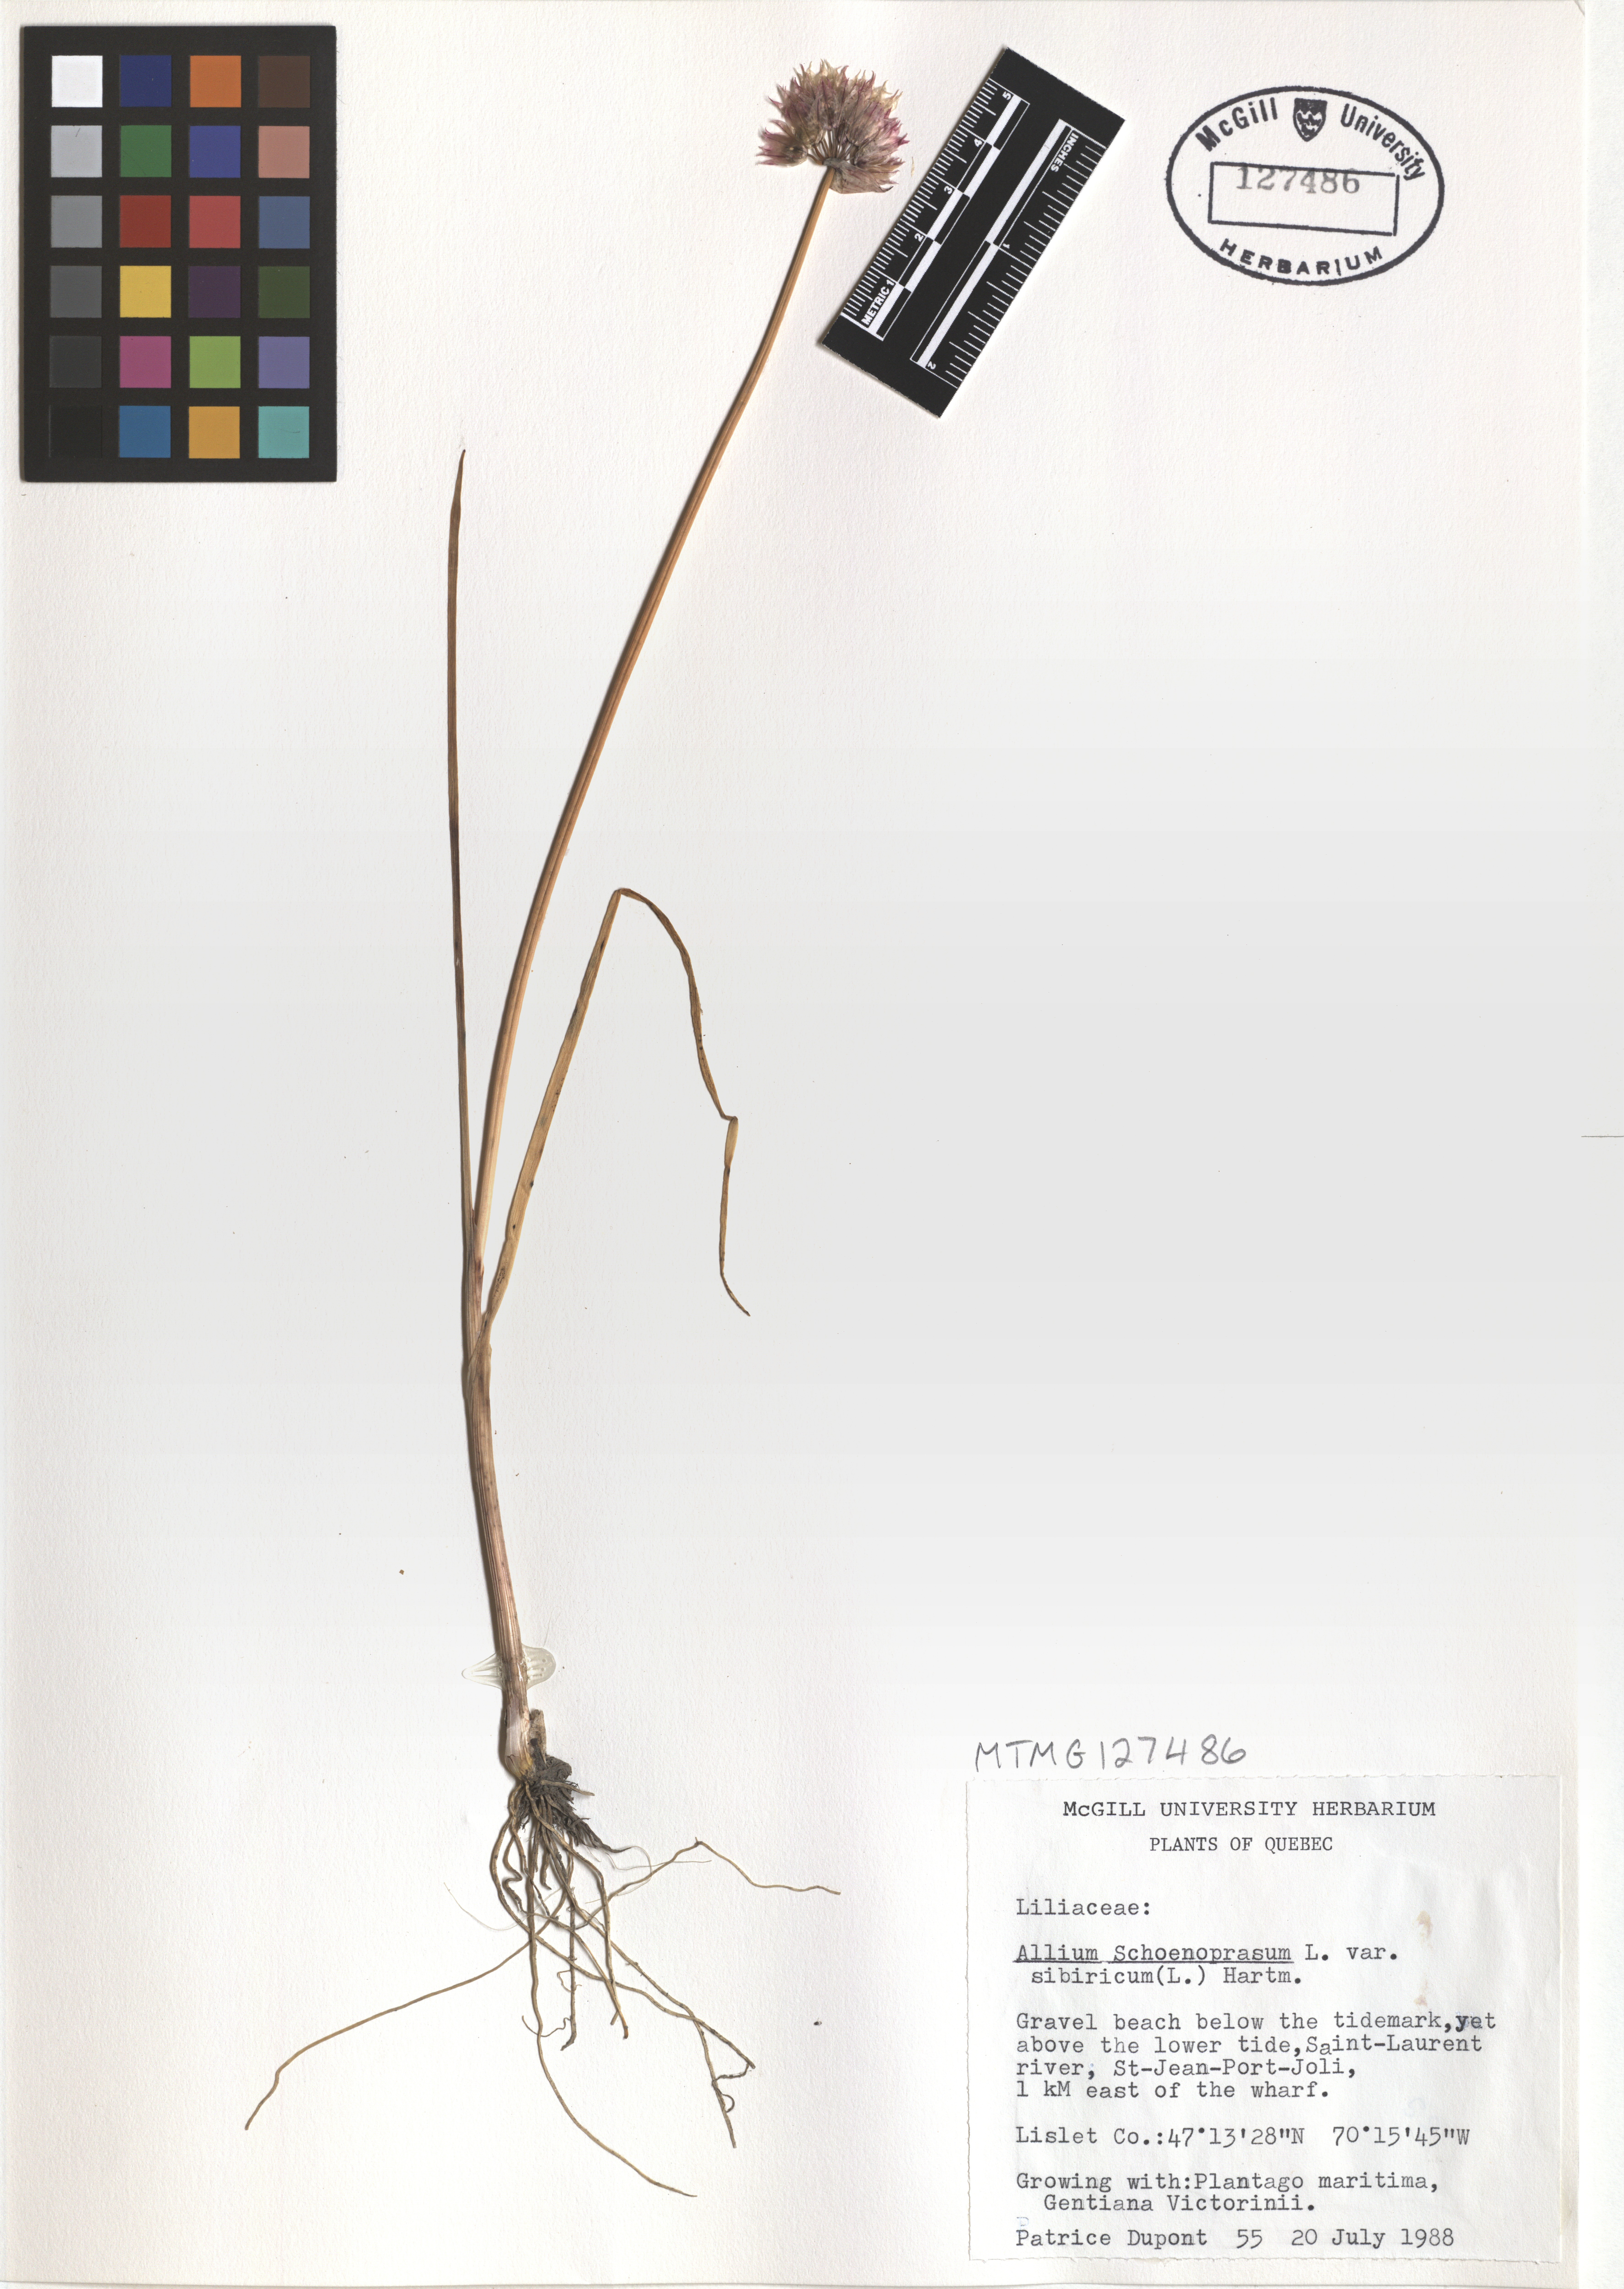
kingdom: Plantae
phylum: Tracheophyta
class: Liliopsida
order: Asparagales
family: Amaryllidaceae
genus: Allium
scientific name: Allium schoenoprasum
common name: Chives
